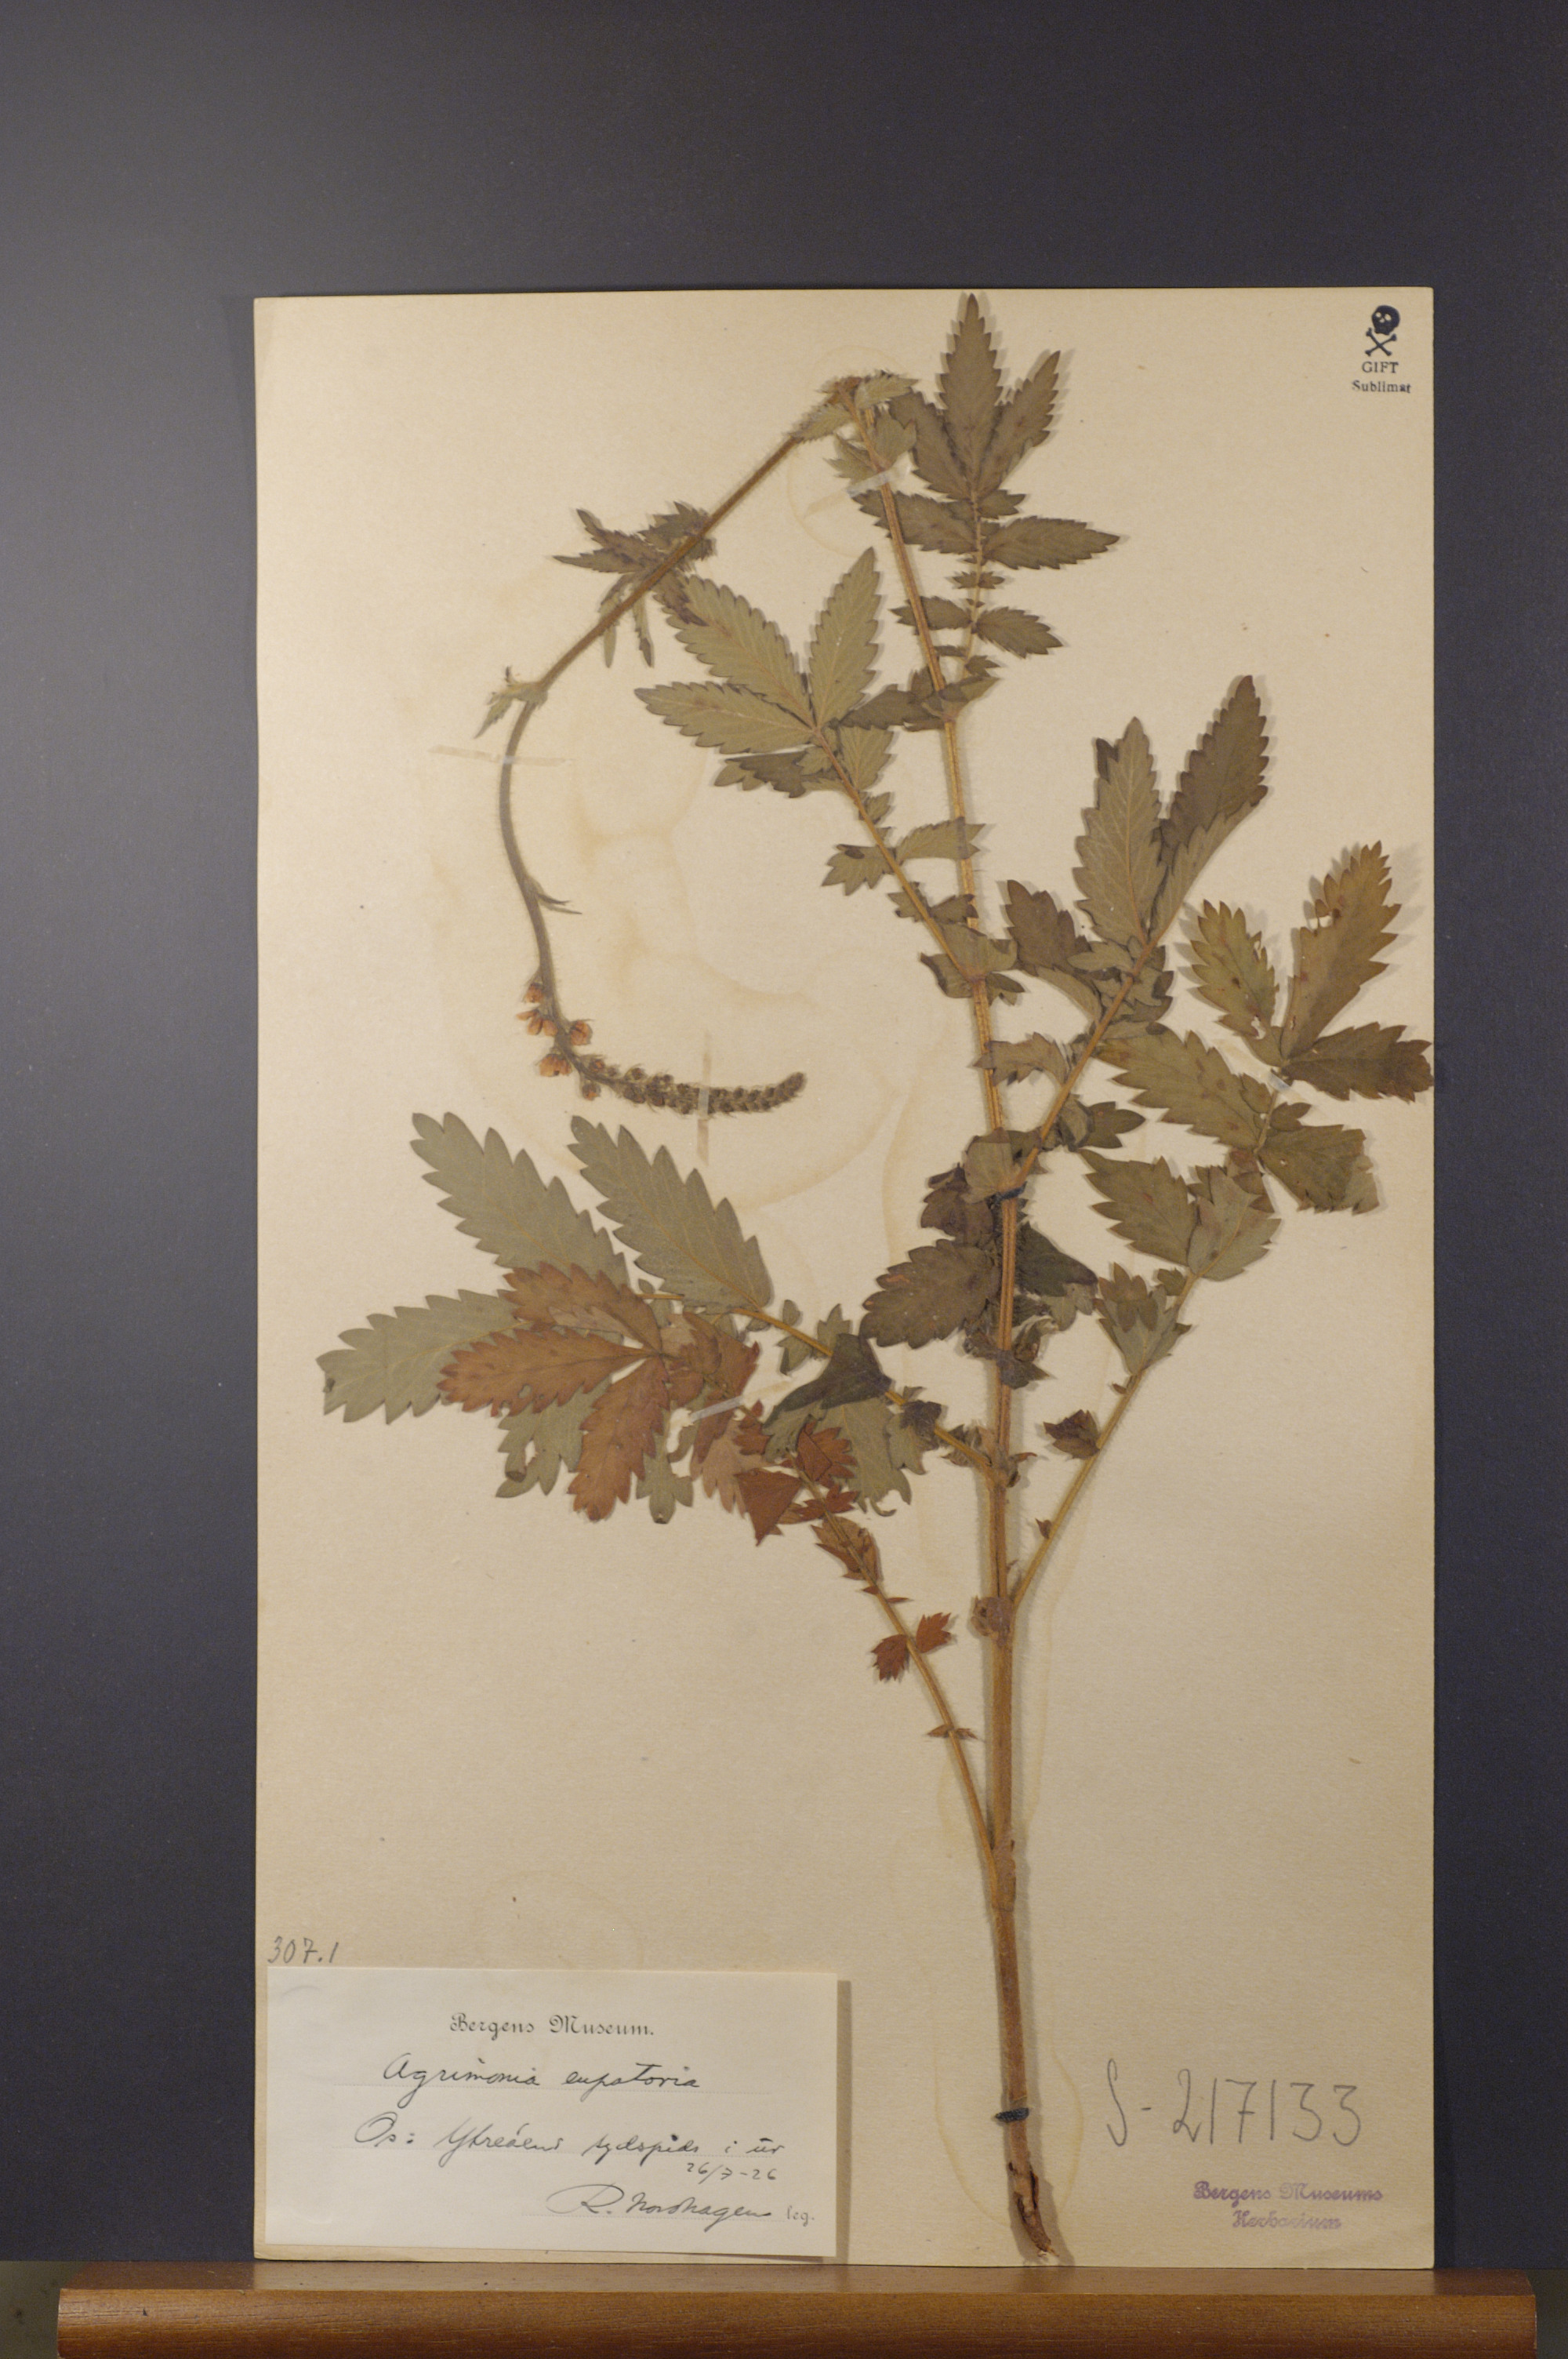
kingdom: Plantae
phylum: Tracheophyta
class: Magnoliopsida
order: Rosales
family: Rosaceae
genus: Agrimonia
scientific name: Agrimonia eupatoria
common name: Agrimony
